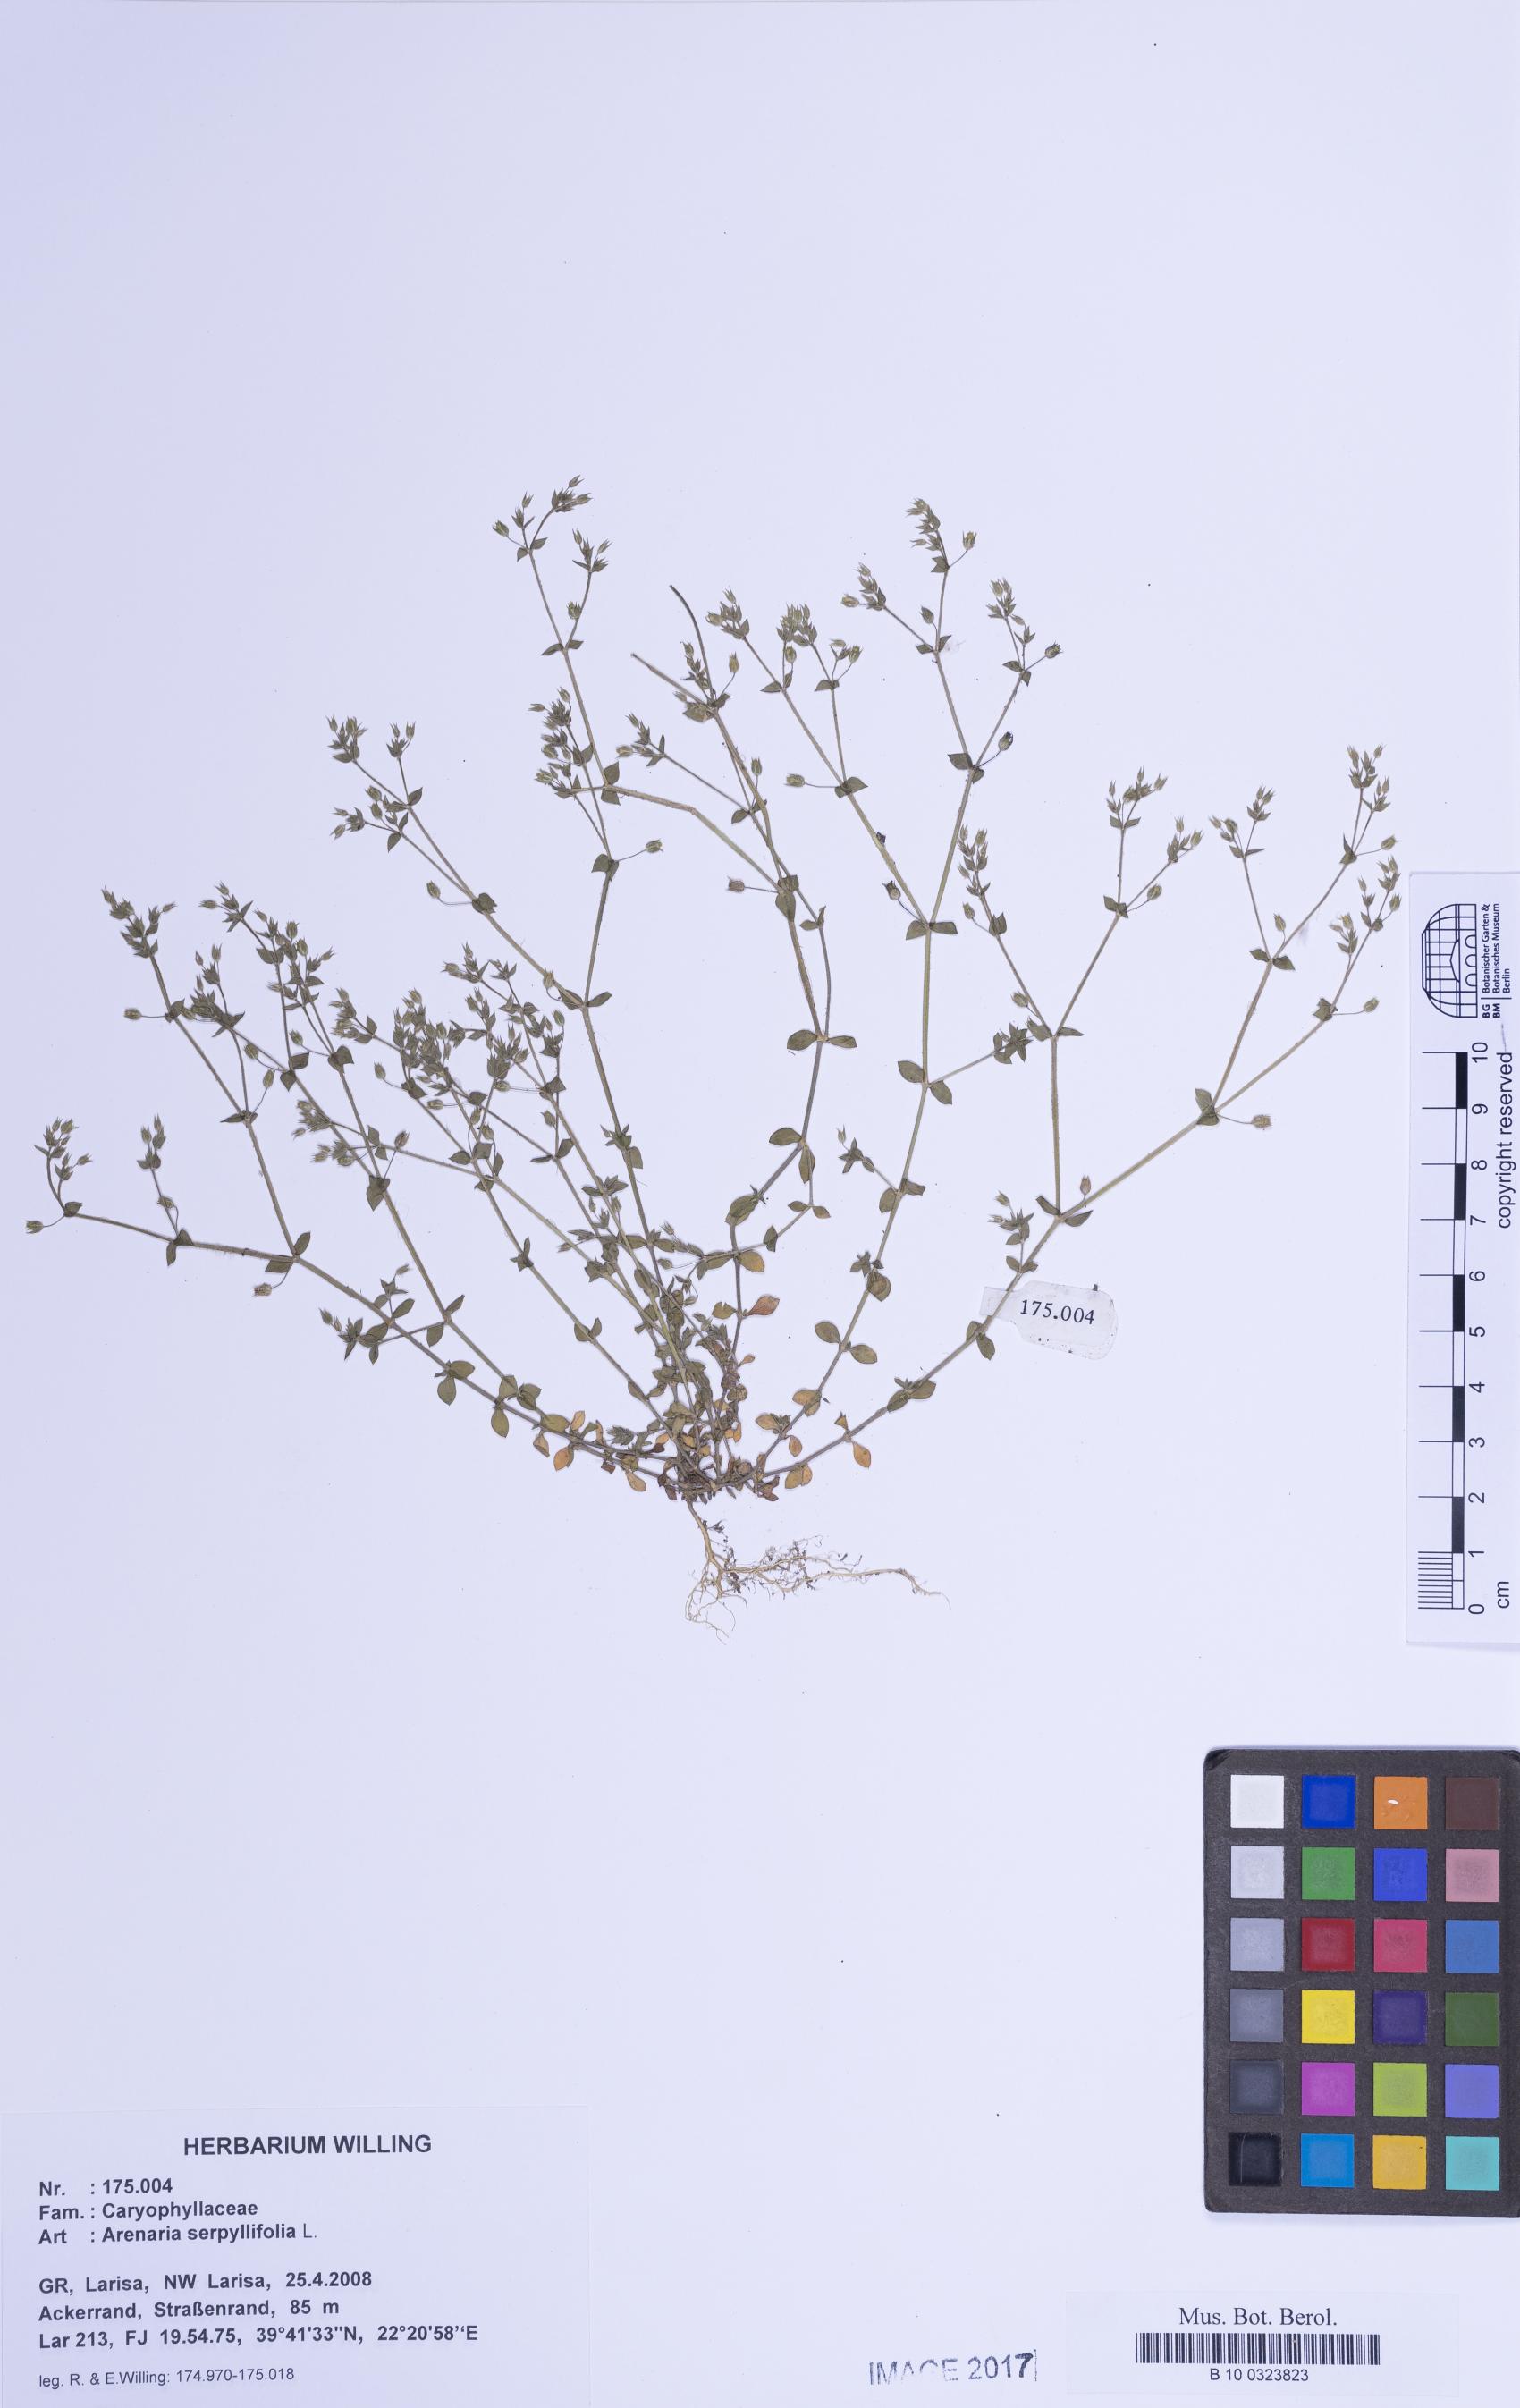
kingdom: Plantae
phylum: Tracheophyta
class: Magnoliopsida
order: Caryophyllales
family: Caryophyllaceae
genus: Arenaria
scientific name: Arenaria serpyllifolia
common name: Thyme-leaved sandwort
